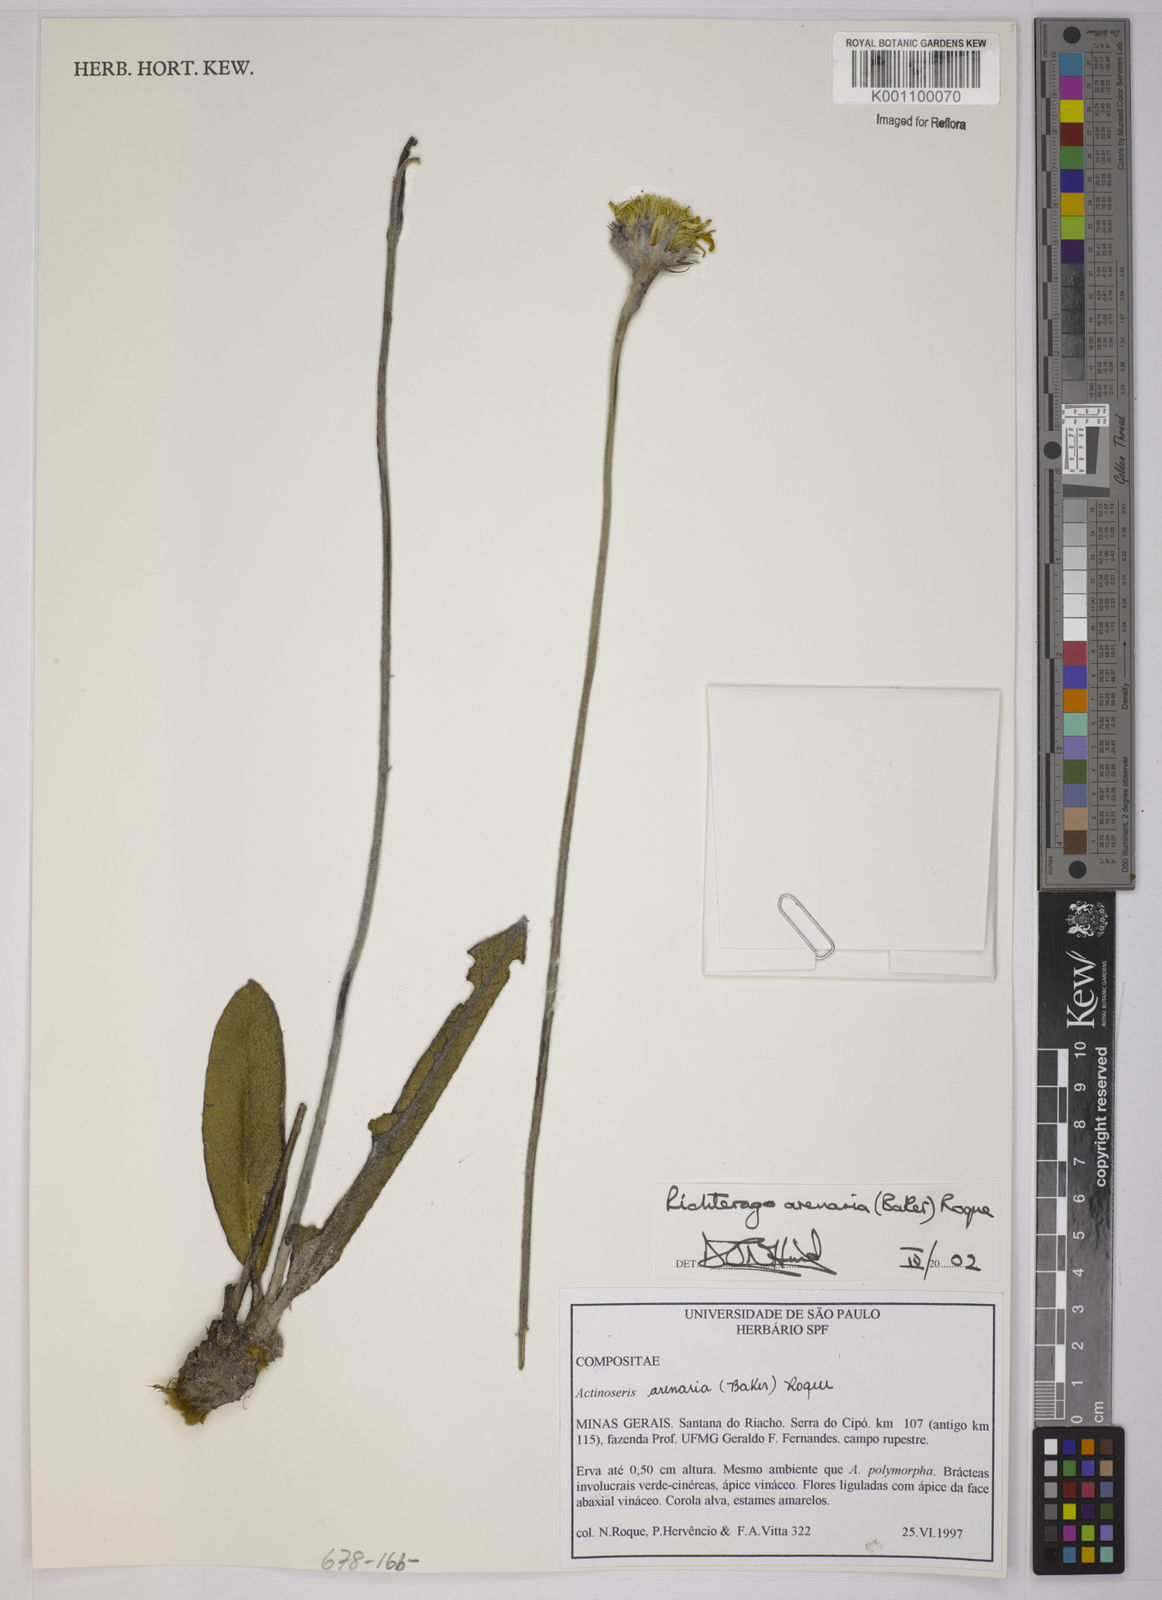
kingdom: Plantae
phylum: Tracheophyta
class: Magnoliopsida
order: Asterales
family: Asteraceae
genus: Richterago
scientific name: Richterago arenaria
